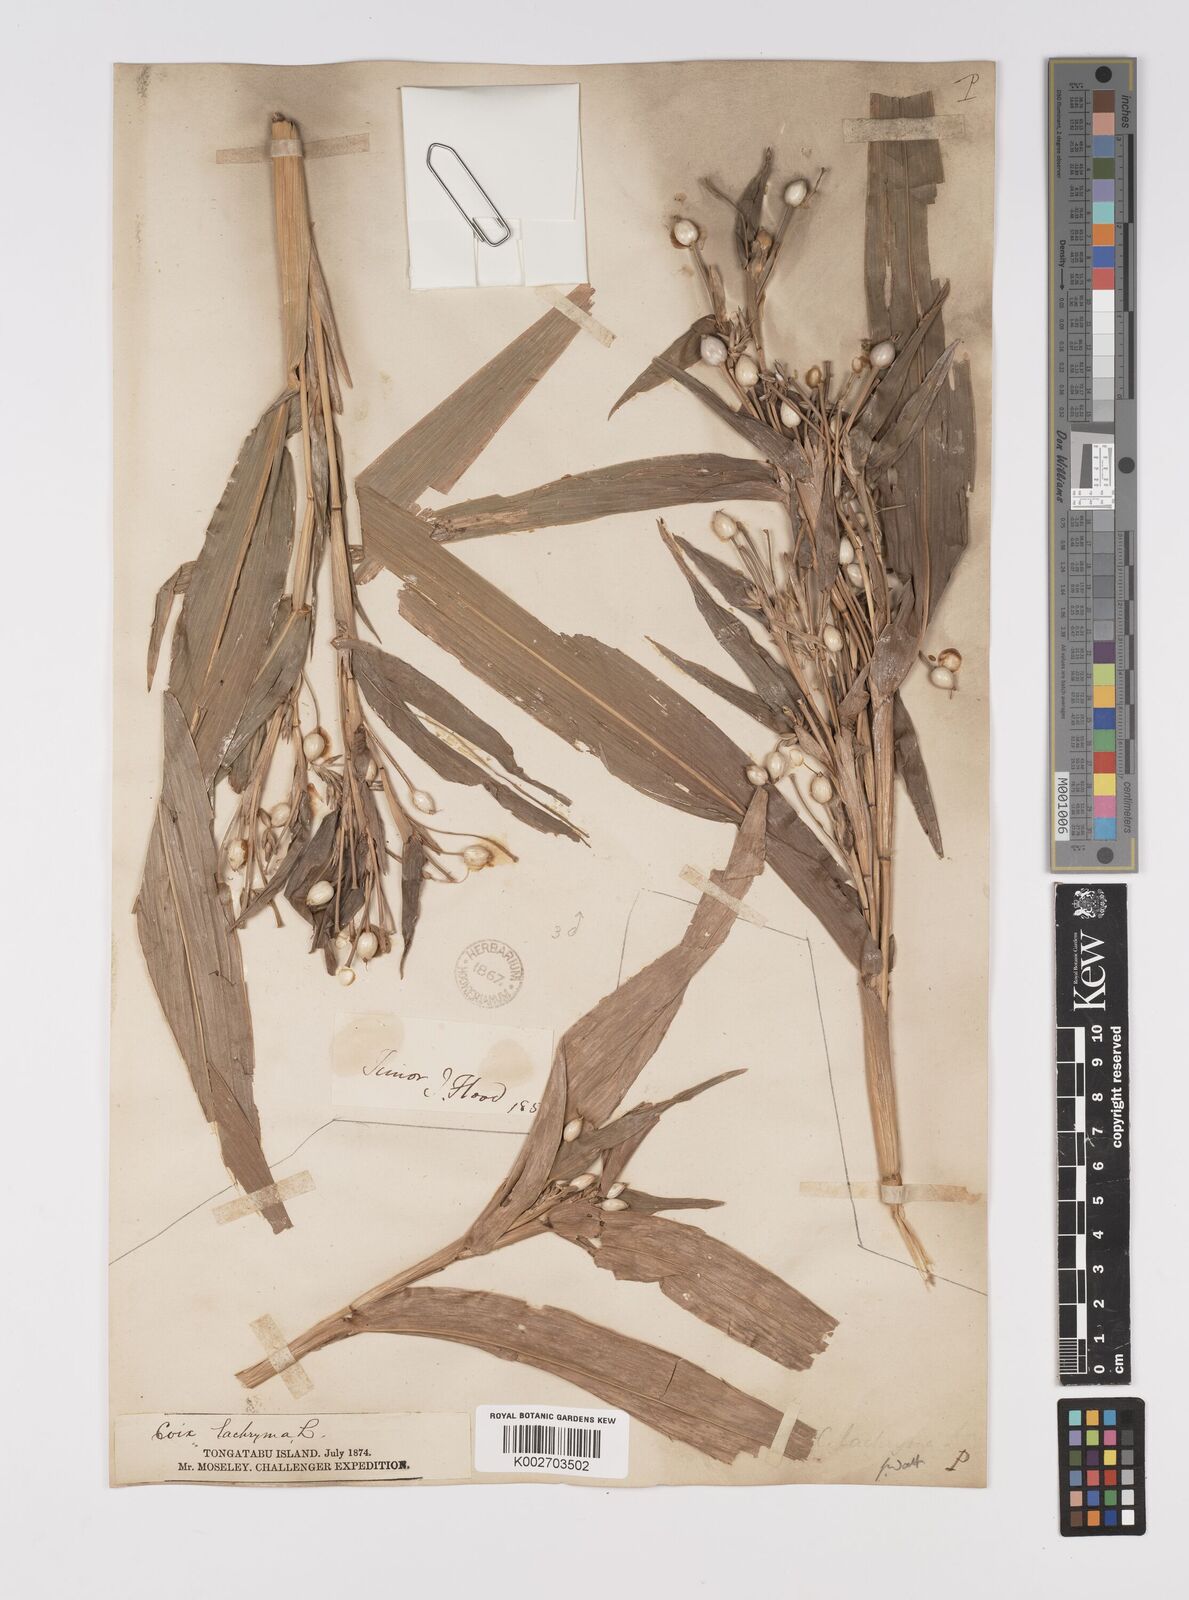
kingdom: Plantae
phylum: Tracheophyta
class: Liliopsida
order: Poales
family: Poaceae
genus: Coix
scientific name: Coix lacryma-jobi
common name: Job's tears
